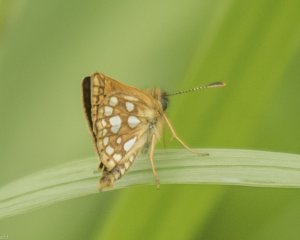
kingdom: Animalia
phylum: Arthropoda
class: Insecta
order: Lepidoptera
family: Hesperiidae
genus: Carterocephalus
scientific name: Carterocephalus palaemon
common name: Chequered Skipper
